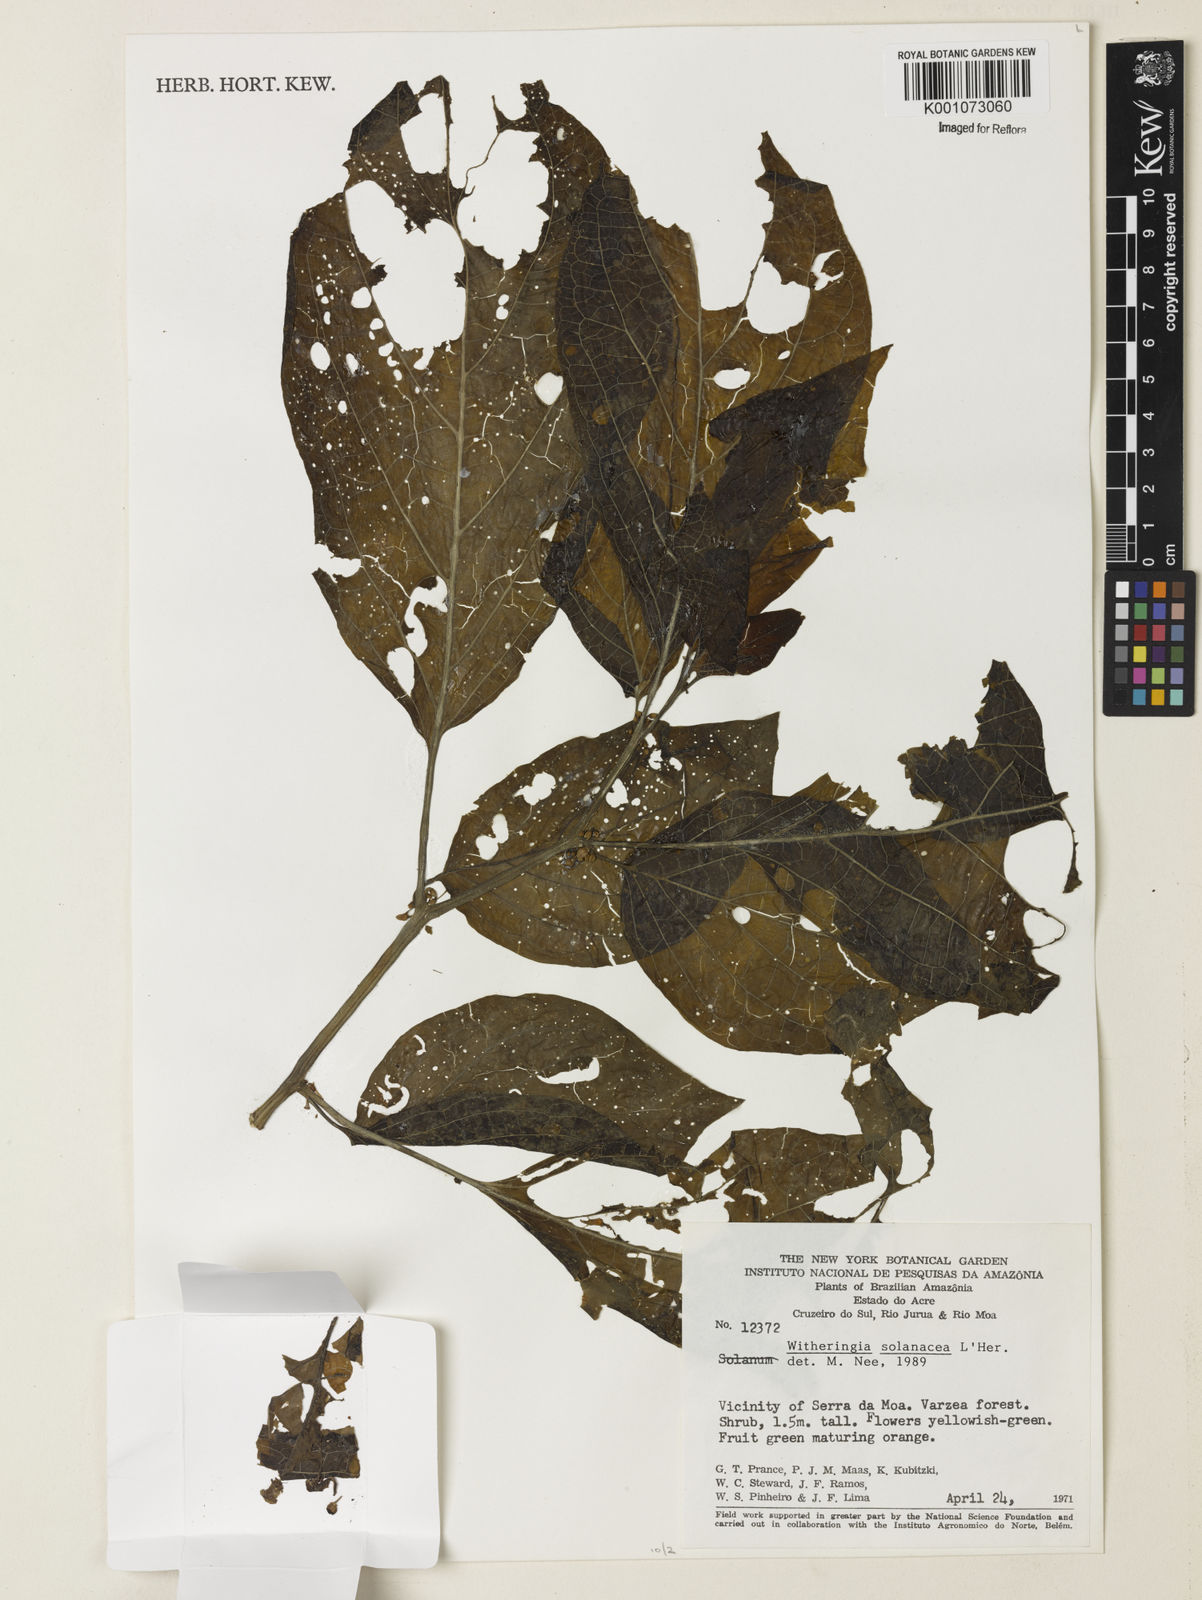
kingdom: Plantae
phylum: Tracheophyta
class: Magnoliopsida
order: Solanales
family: Solanaceae
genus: Witheringia
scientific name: Witheringia
